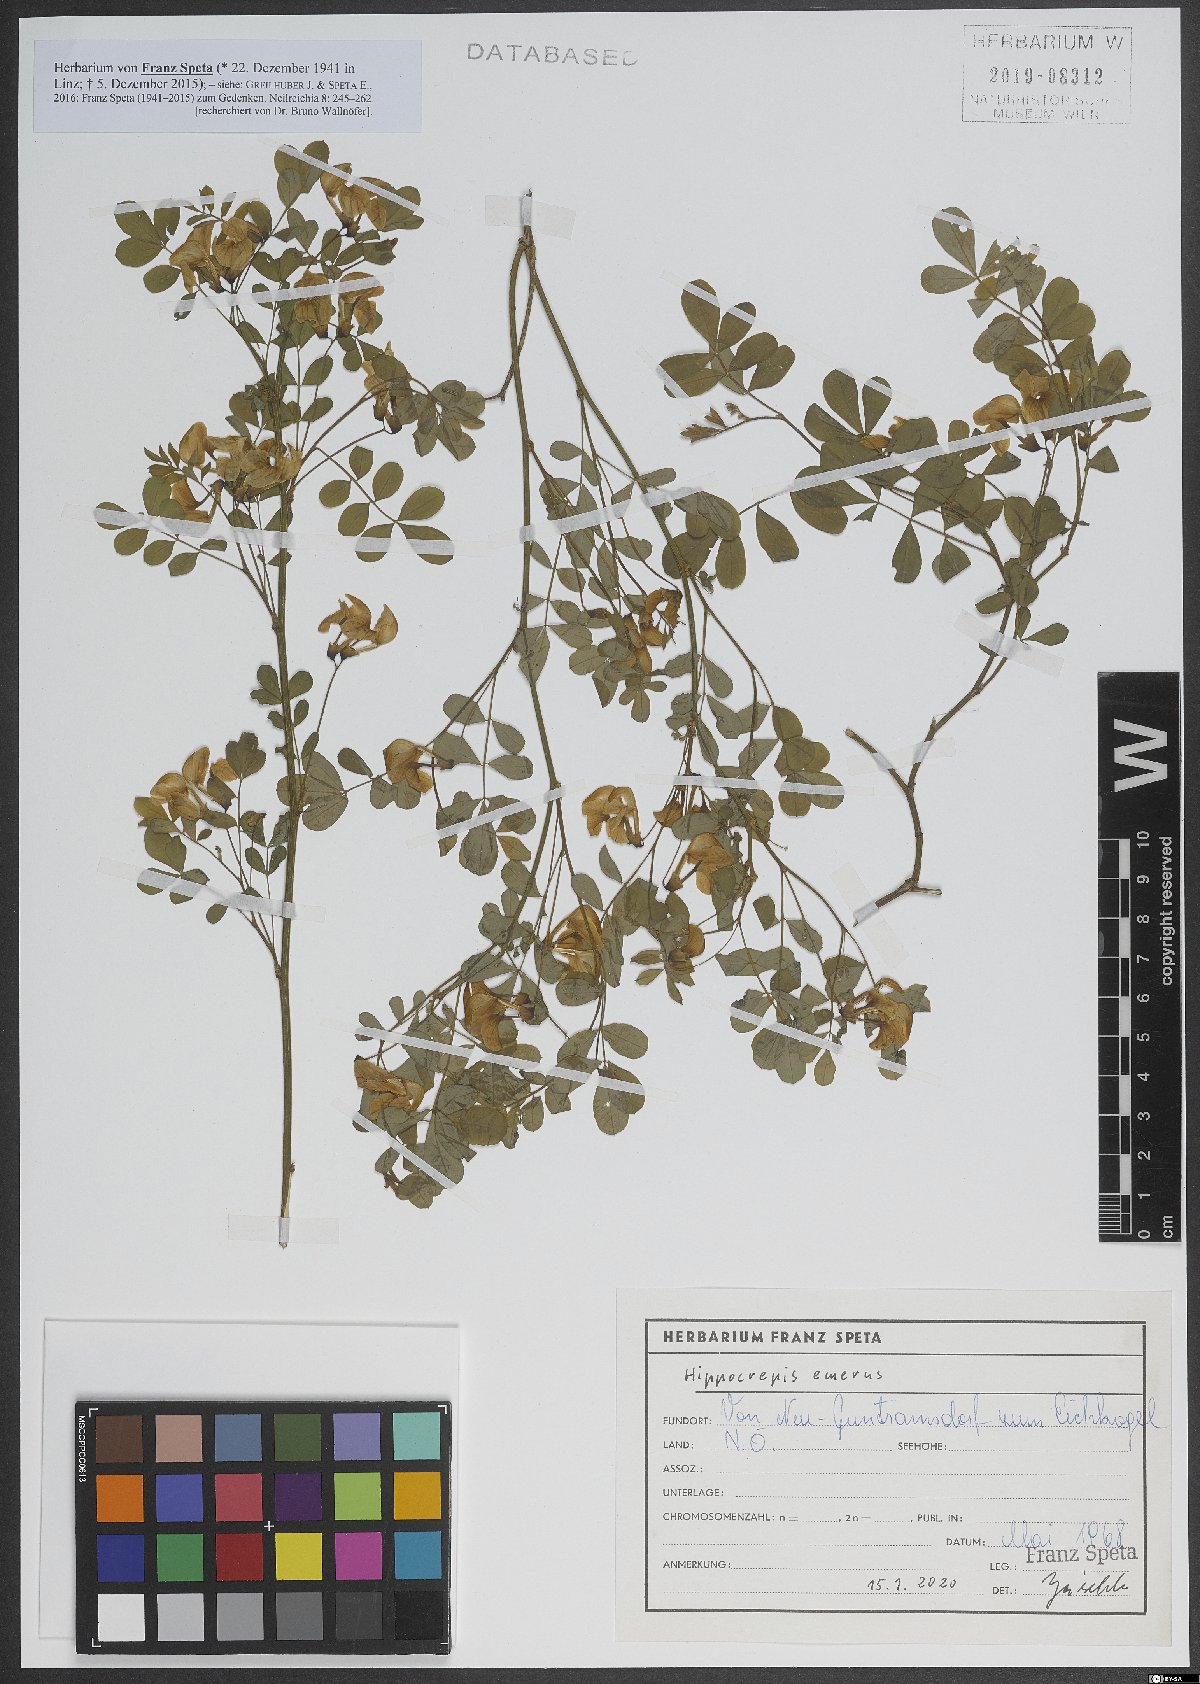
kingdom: Plantae
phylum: Tracheophyta
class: Magnoliopsida
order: Fabales
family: Fabaceae
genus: Hippocrepis
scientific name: Hippocrepis emerus
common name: Scorpion senna
